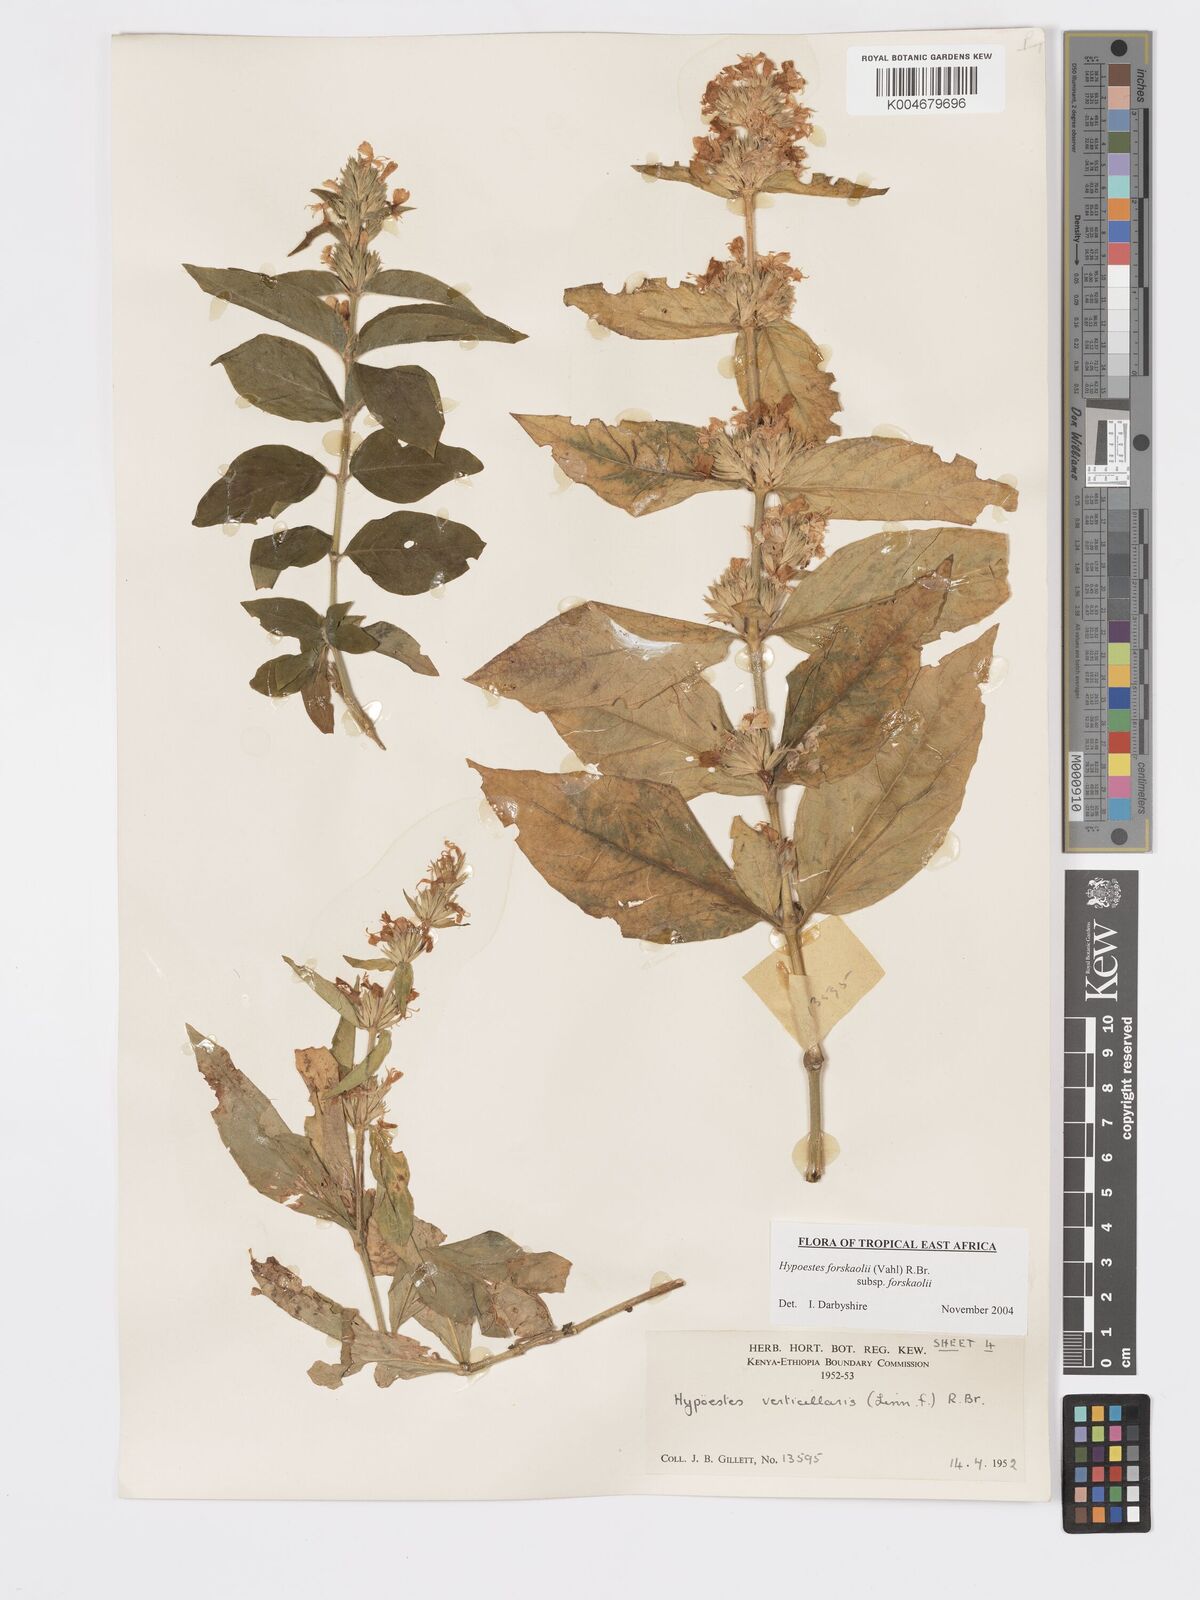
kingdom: Plantae
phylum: Tracheophyta
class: Magnoliopsida
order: Lamiales
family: Acanthaceae
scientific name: Acanthaceae
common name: Acanthaceae
